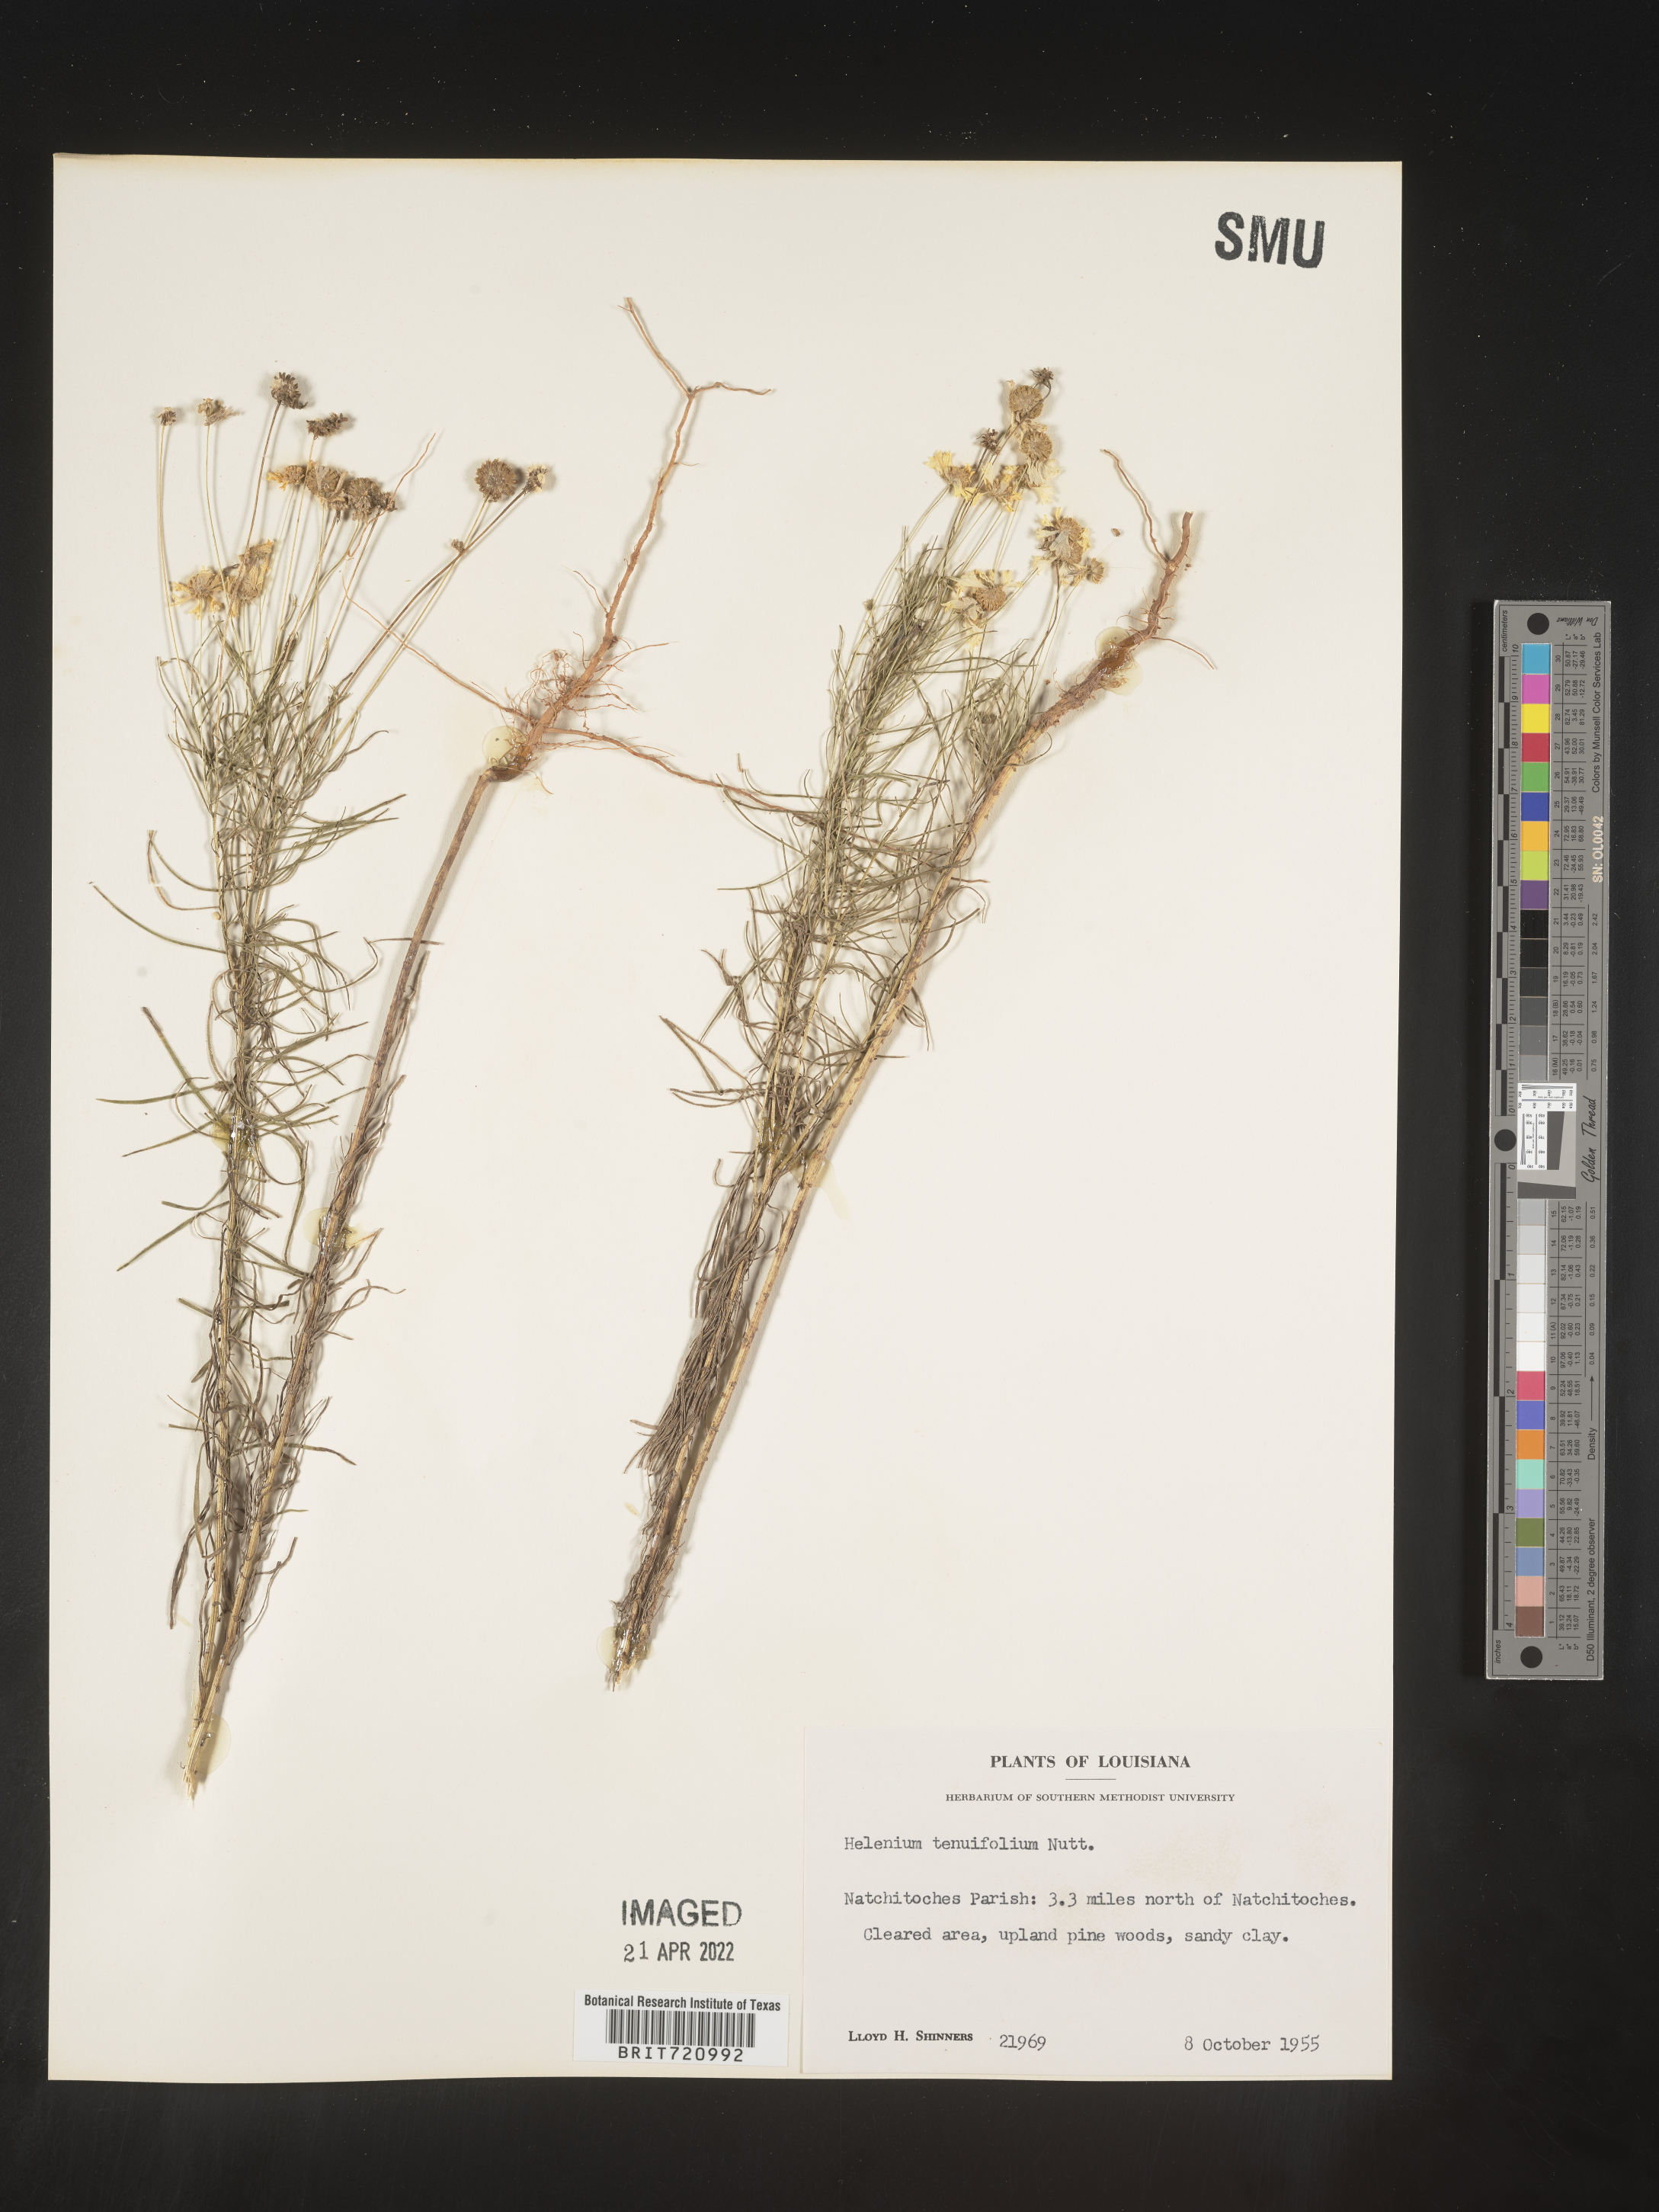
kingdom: Plantae
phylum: Tracheophyta
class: Magnoliopsida
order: Asterales
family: Asteraceae
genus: Helenium
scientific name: Helenium amarum
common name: Bitter sneezeweed
